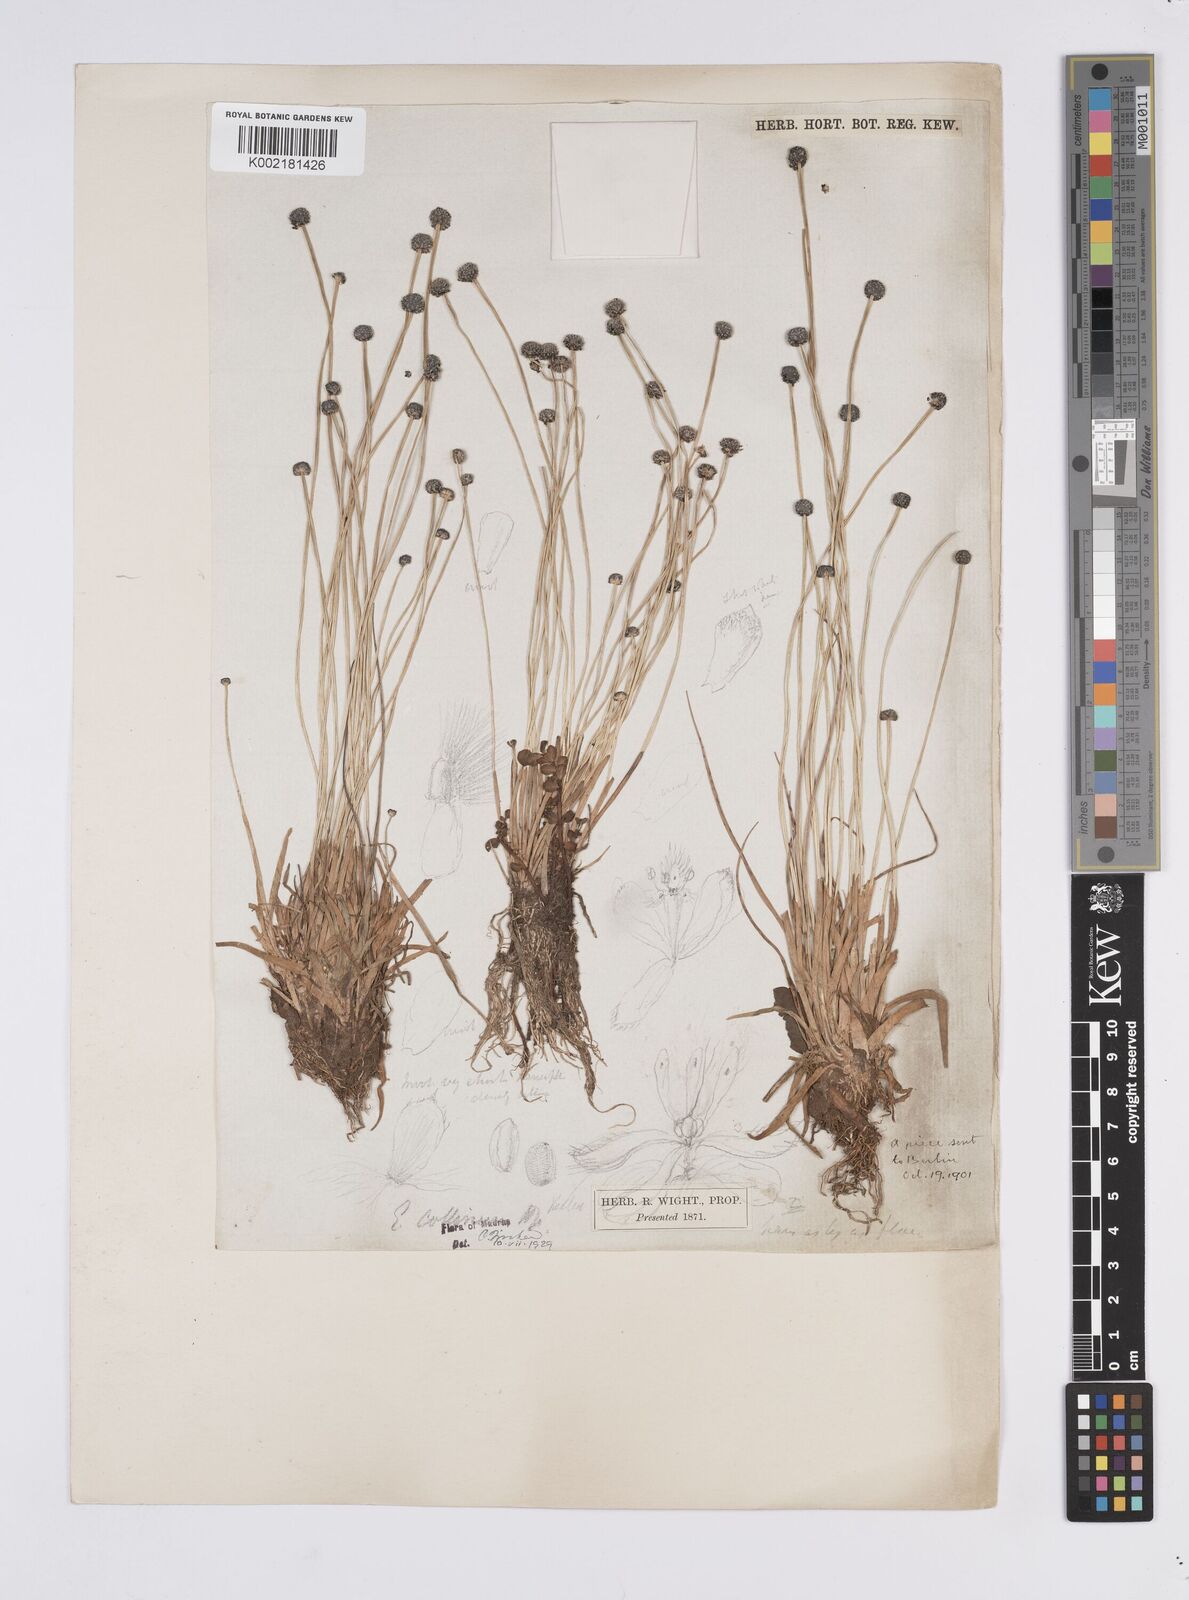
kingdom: Plantae
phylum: Tracheophyta
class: Liliopsida
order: Poales
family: Eriocaulaceae
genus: Eriocaulon
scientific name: Eriocaulon odoratum
